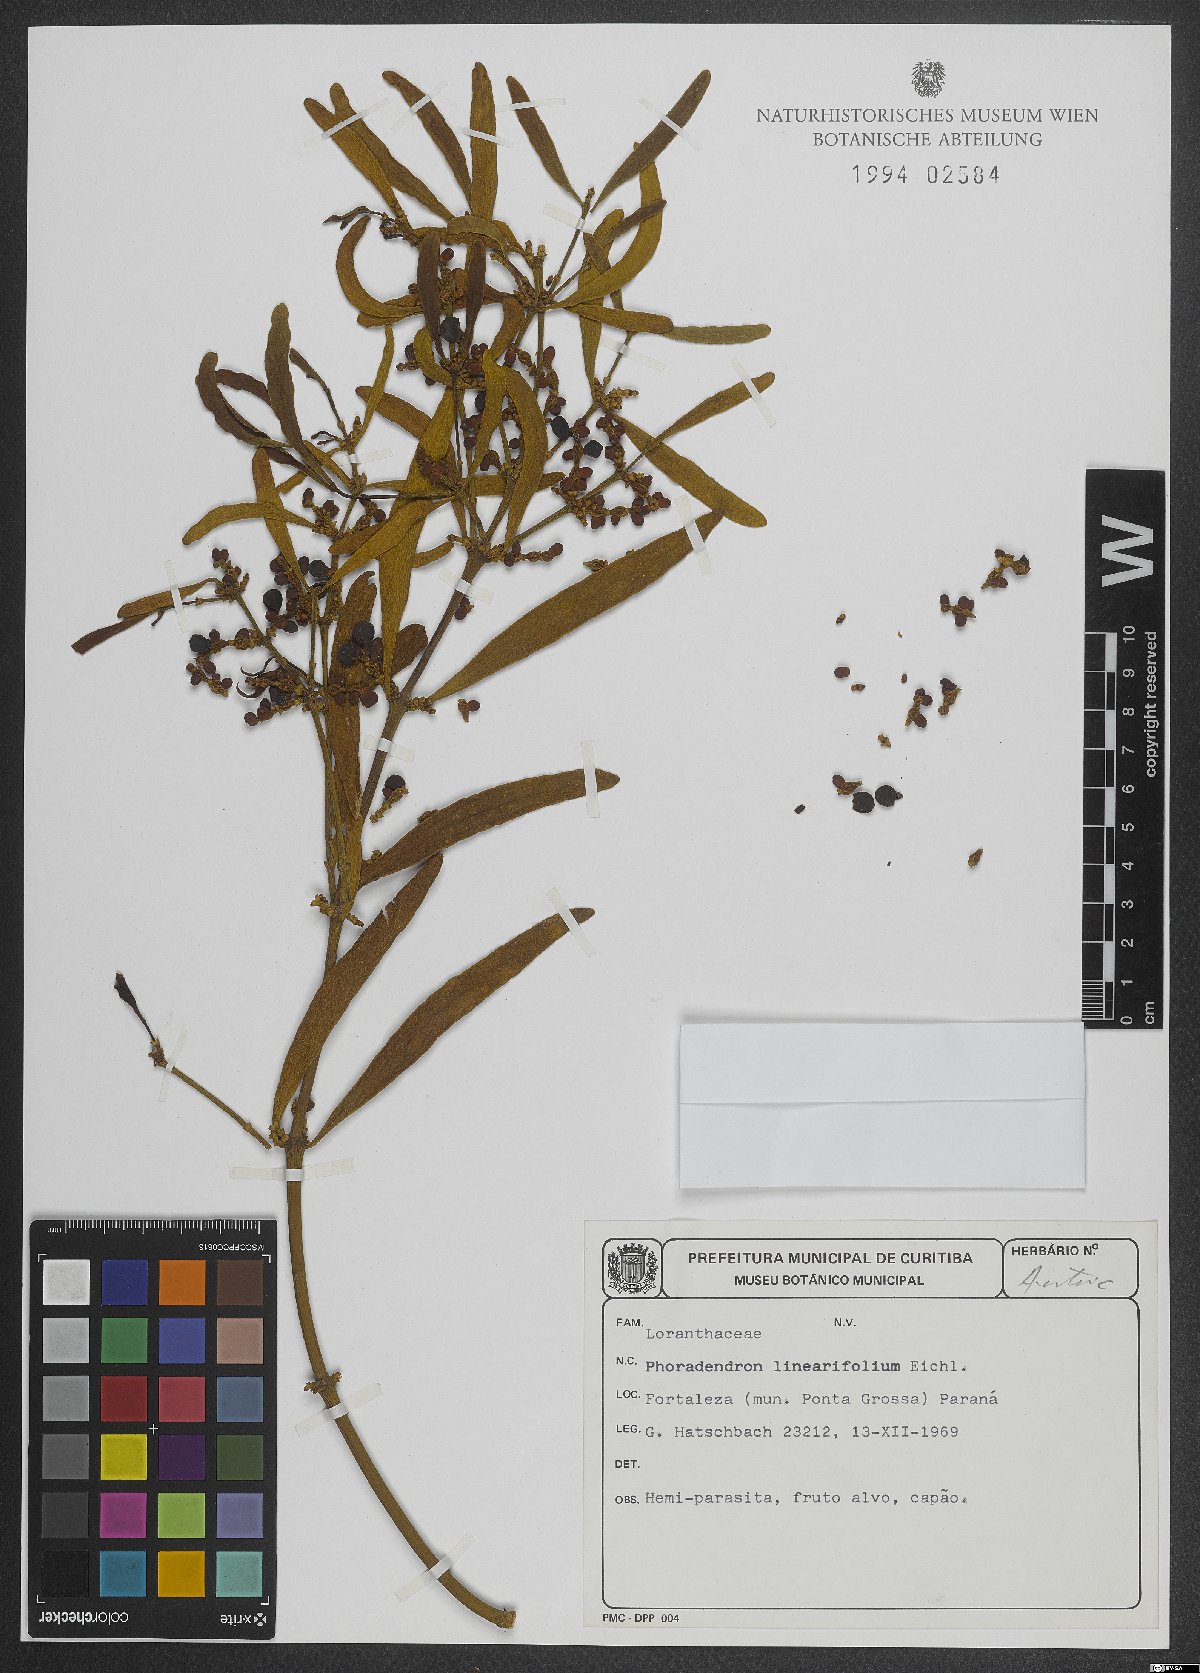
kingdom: Plantae
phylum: Tracheophyta
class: Magnoliopsida
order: Santalales
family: Viscaceae
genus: Phoradendron
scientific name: Phoradendron linearifolium
